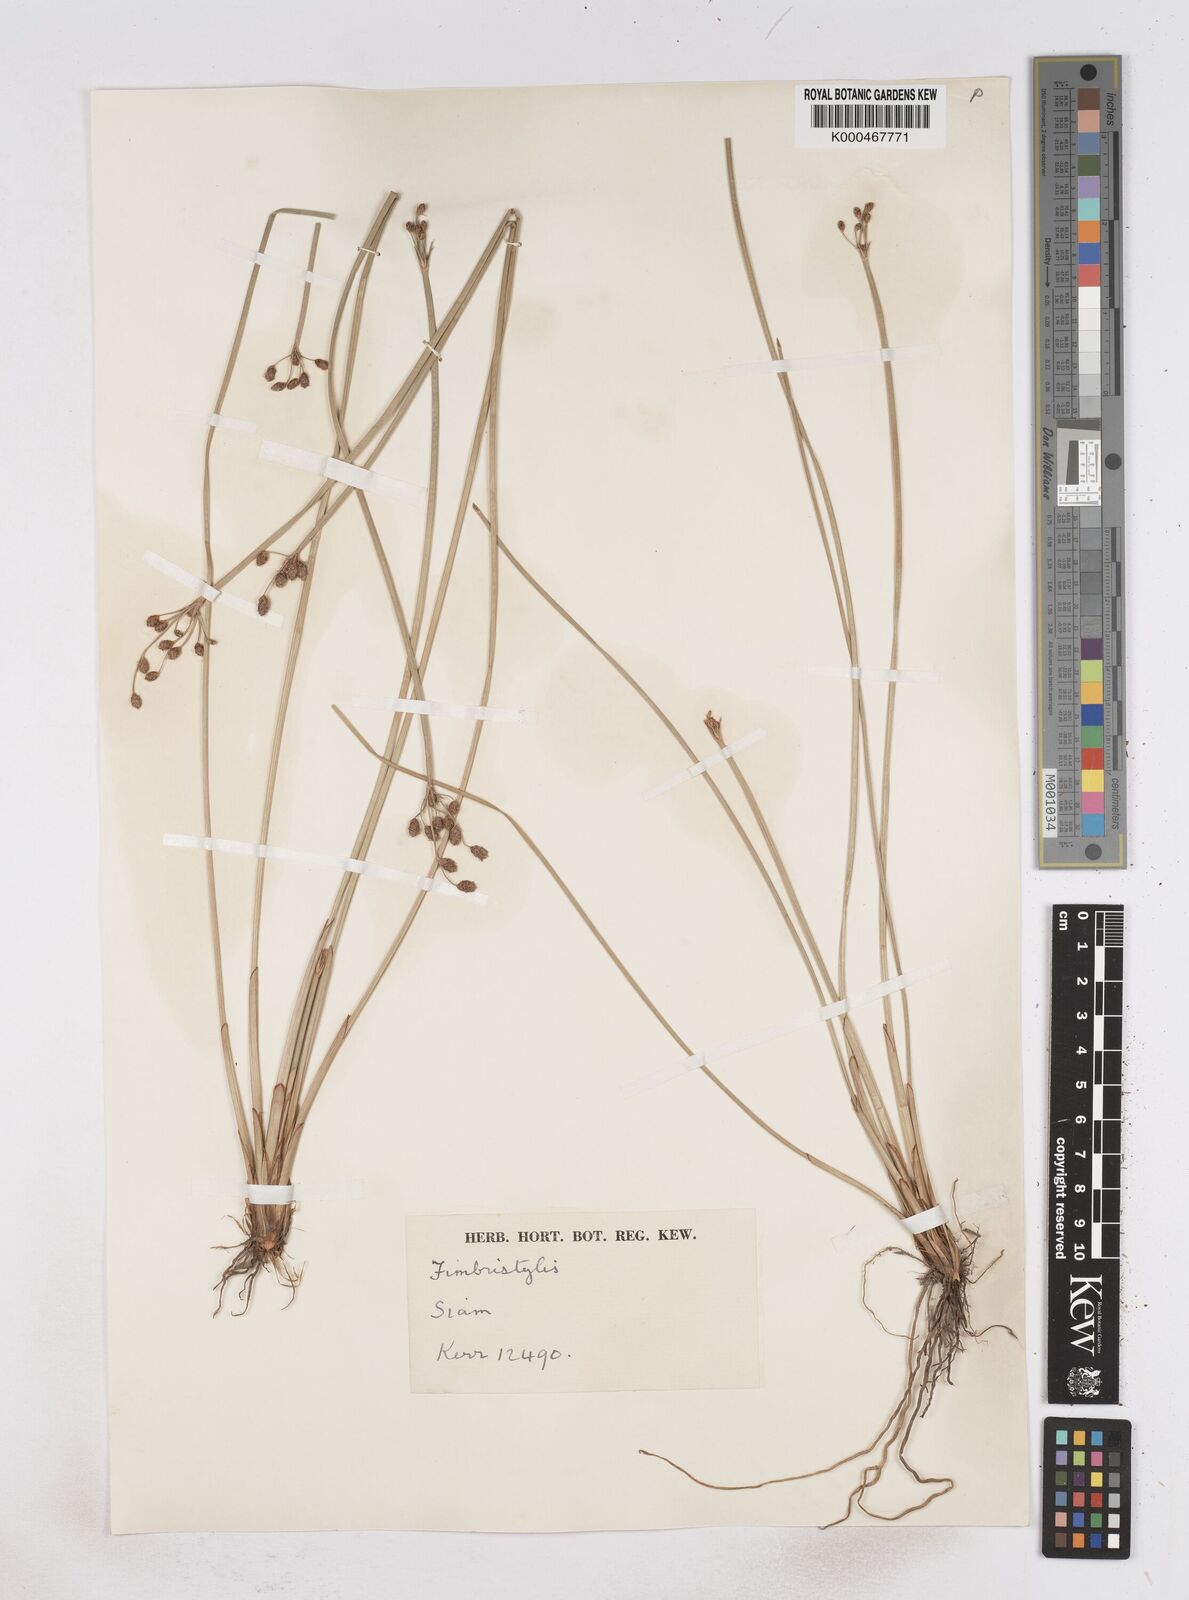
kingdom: Plantae
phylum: Tracheophyta
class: Liliopsida
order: Poales
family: Cyperaceae
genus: Fimbristylis
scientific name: Fimbristylis umbellaris
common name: Globular fimbristylis
